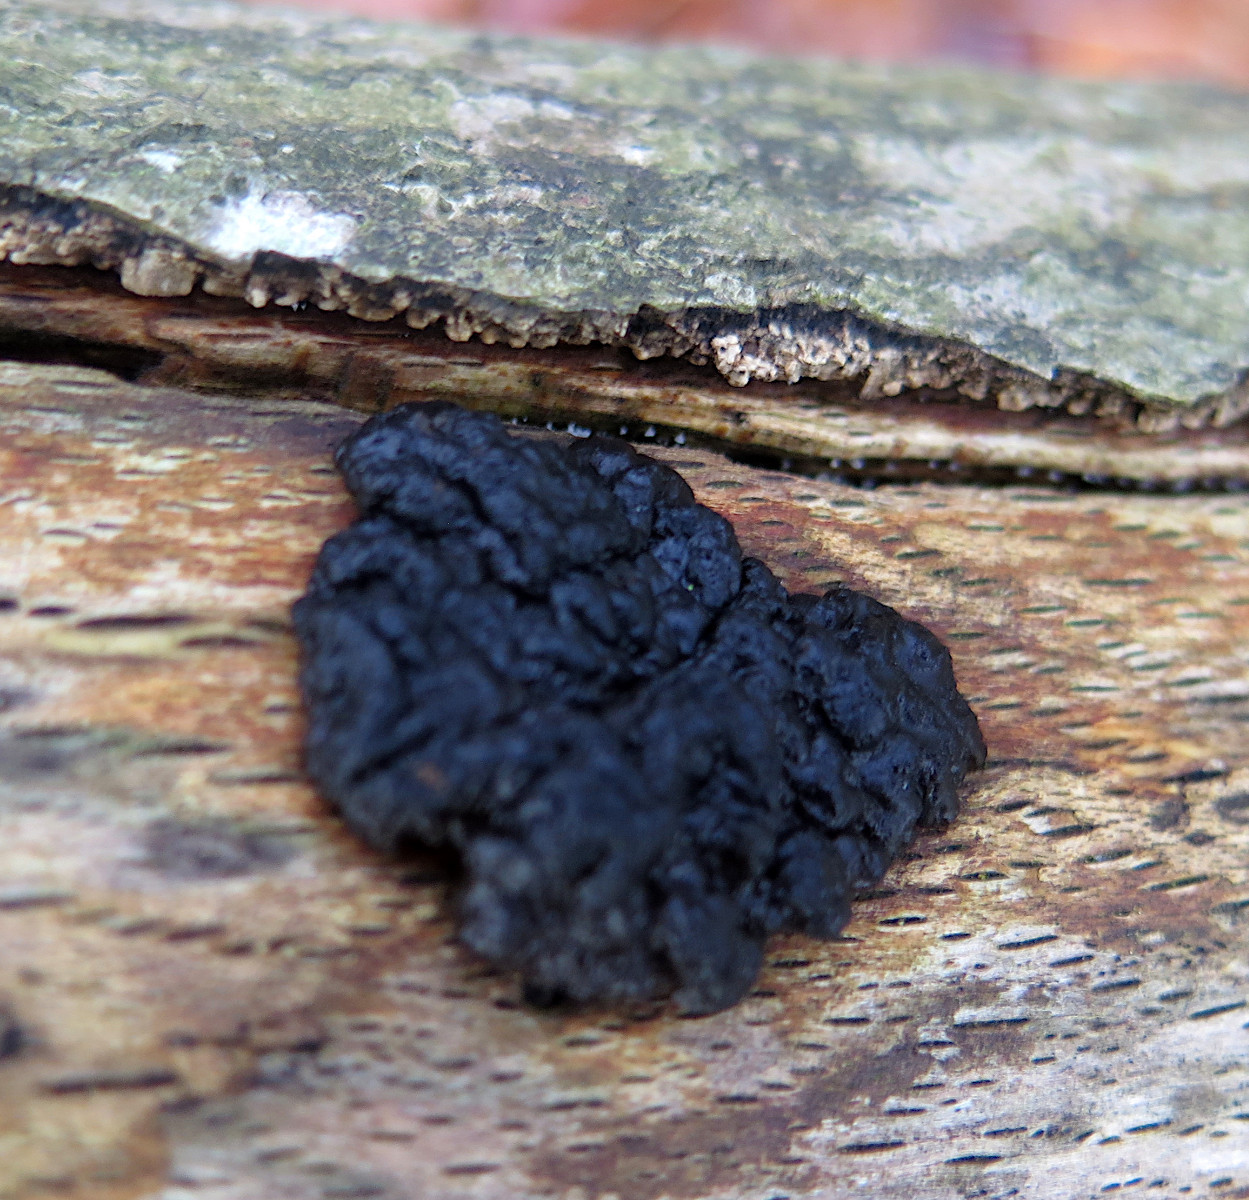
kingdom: Fungi
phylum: Basidiomycota
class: Agaricomycetes
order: Auriculariales
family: Auriculariaceae
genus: Exidia
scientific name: Exidia nigricans
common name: almindelig bævretop
